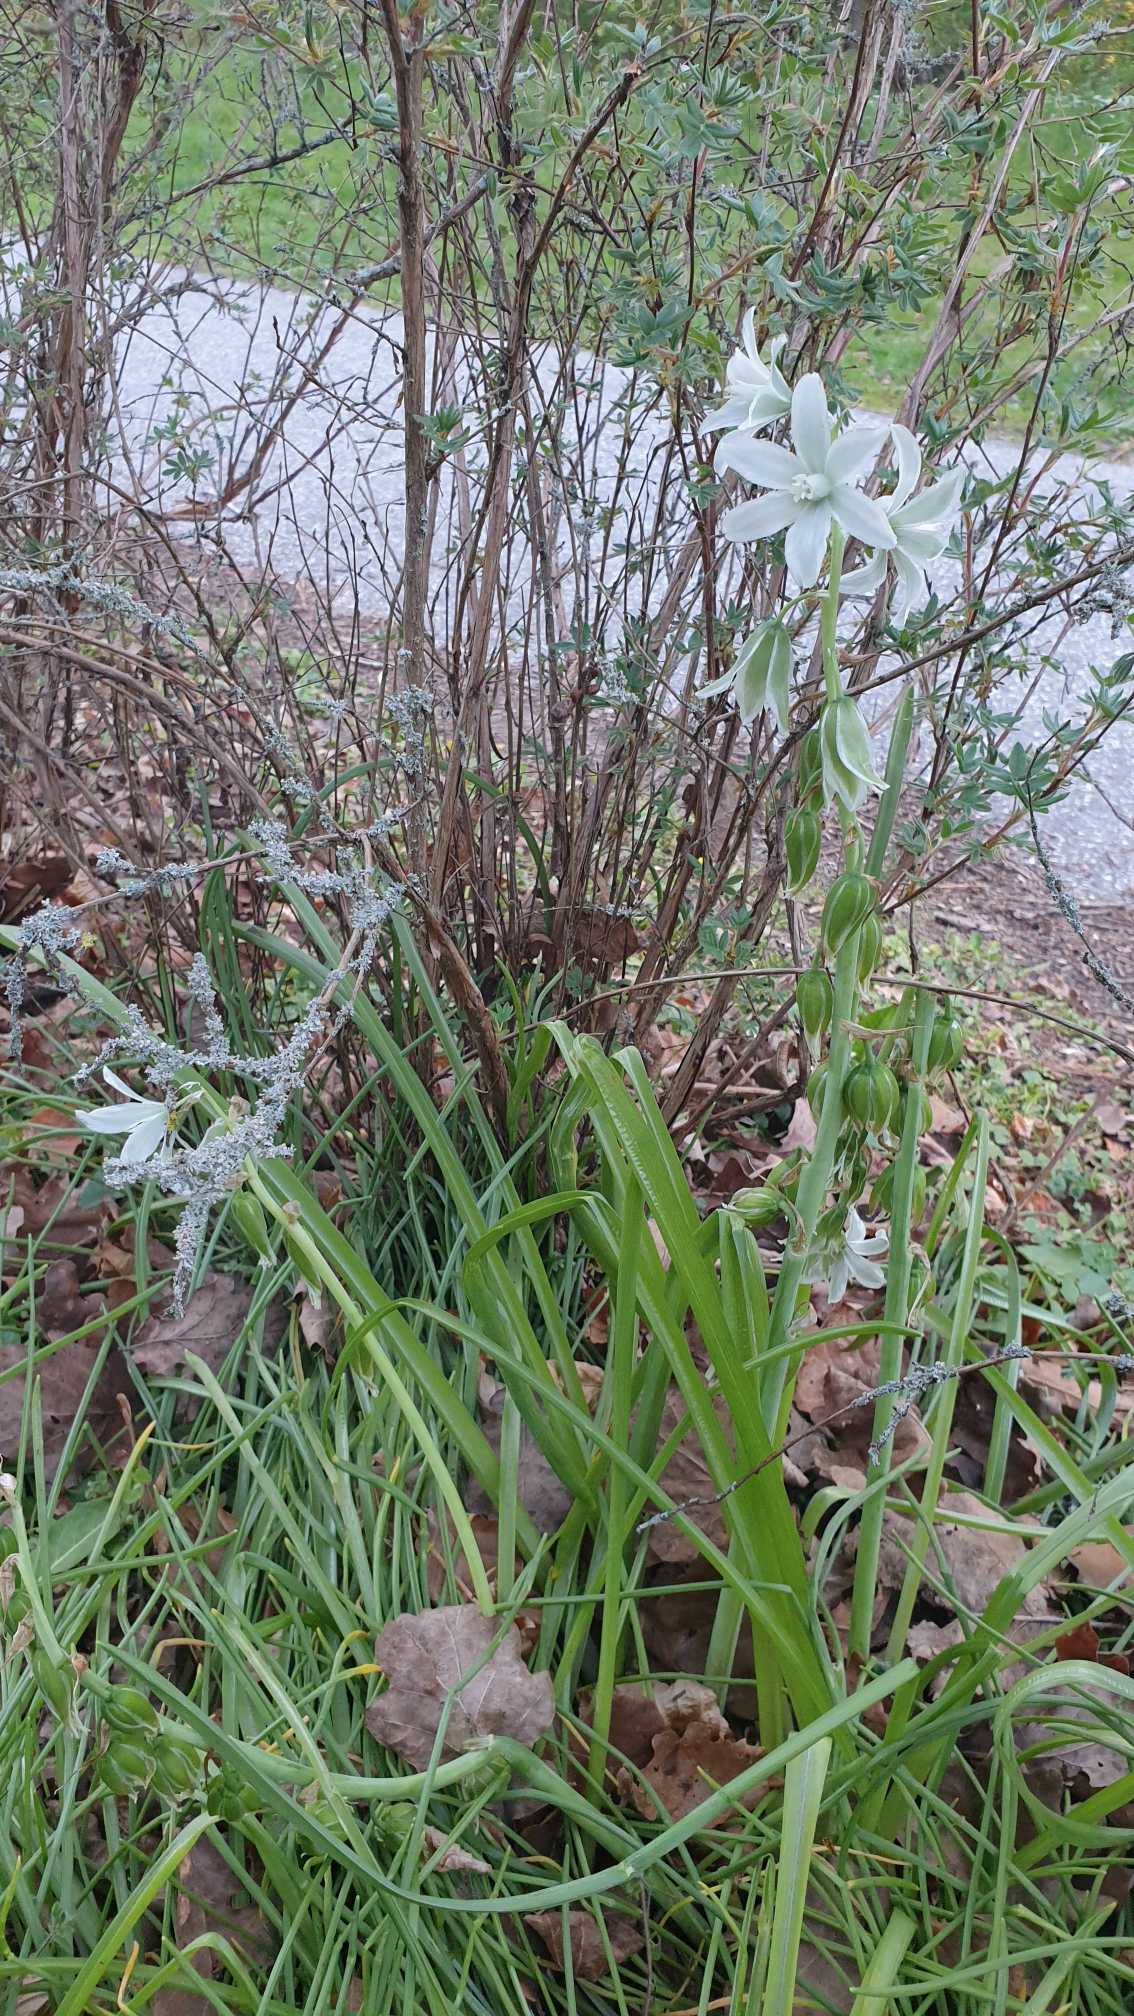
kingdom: Plantae
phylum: Tracheophyta
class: Liliopsida
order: Asparagales
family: Asparagaceae
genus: Ornithogalum
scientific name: Ornithogalum nutans
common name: Nikkende fuglemælk
